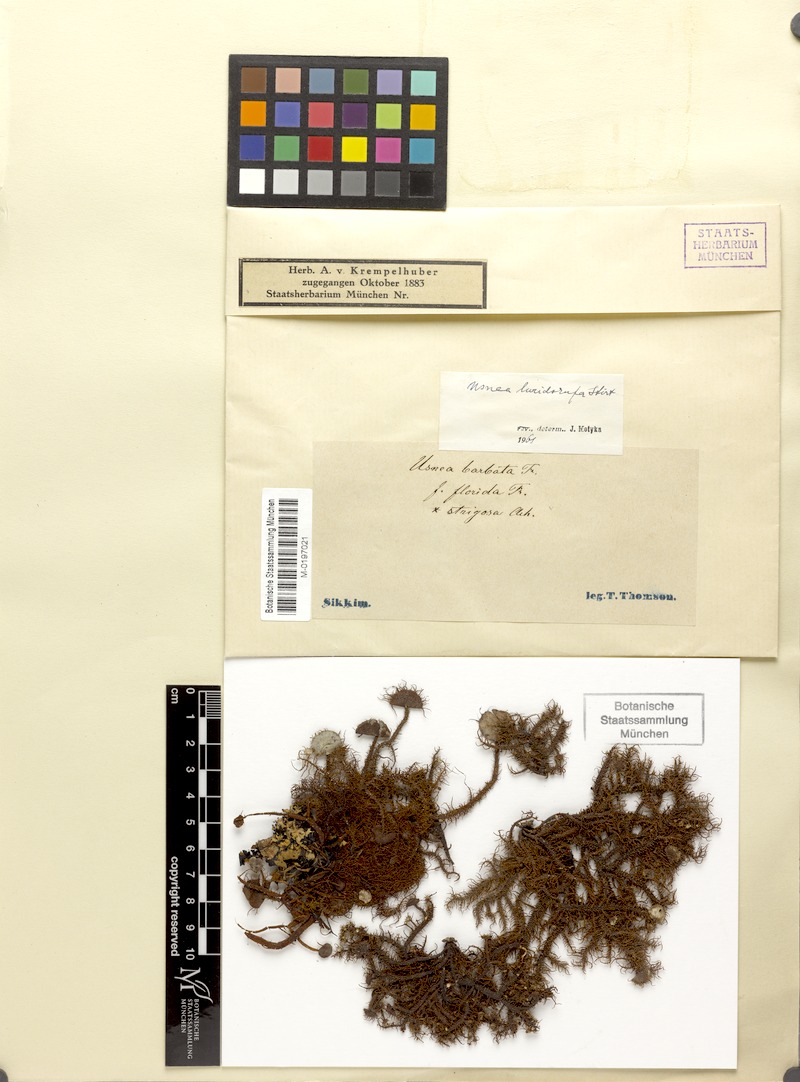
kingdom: Fungi
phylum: Ascomycota
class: Lecanoromycetes
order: Lecanorales
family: Parmeliaceae
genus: Usnea
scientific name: Usnea luridorufa
